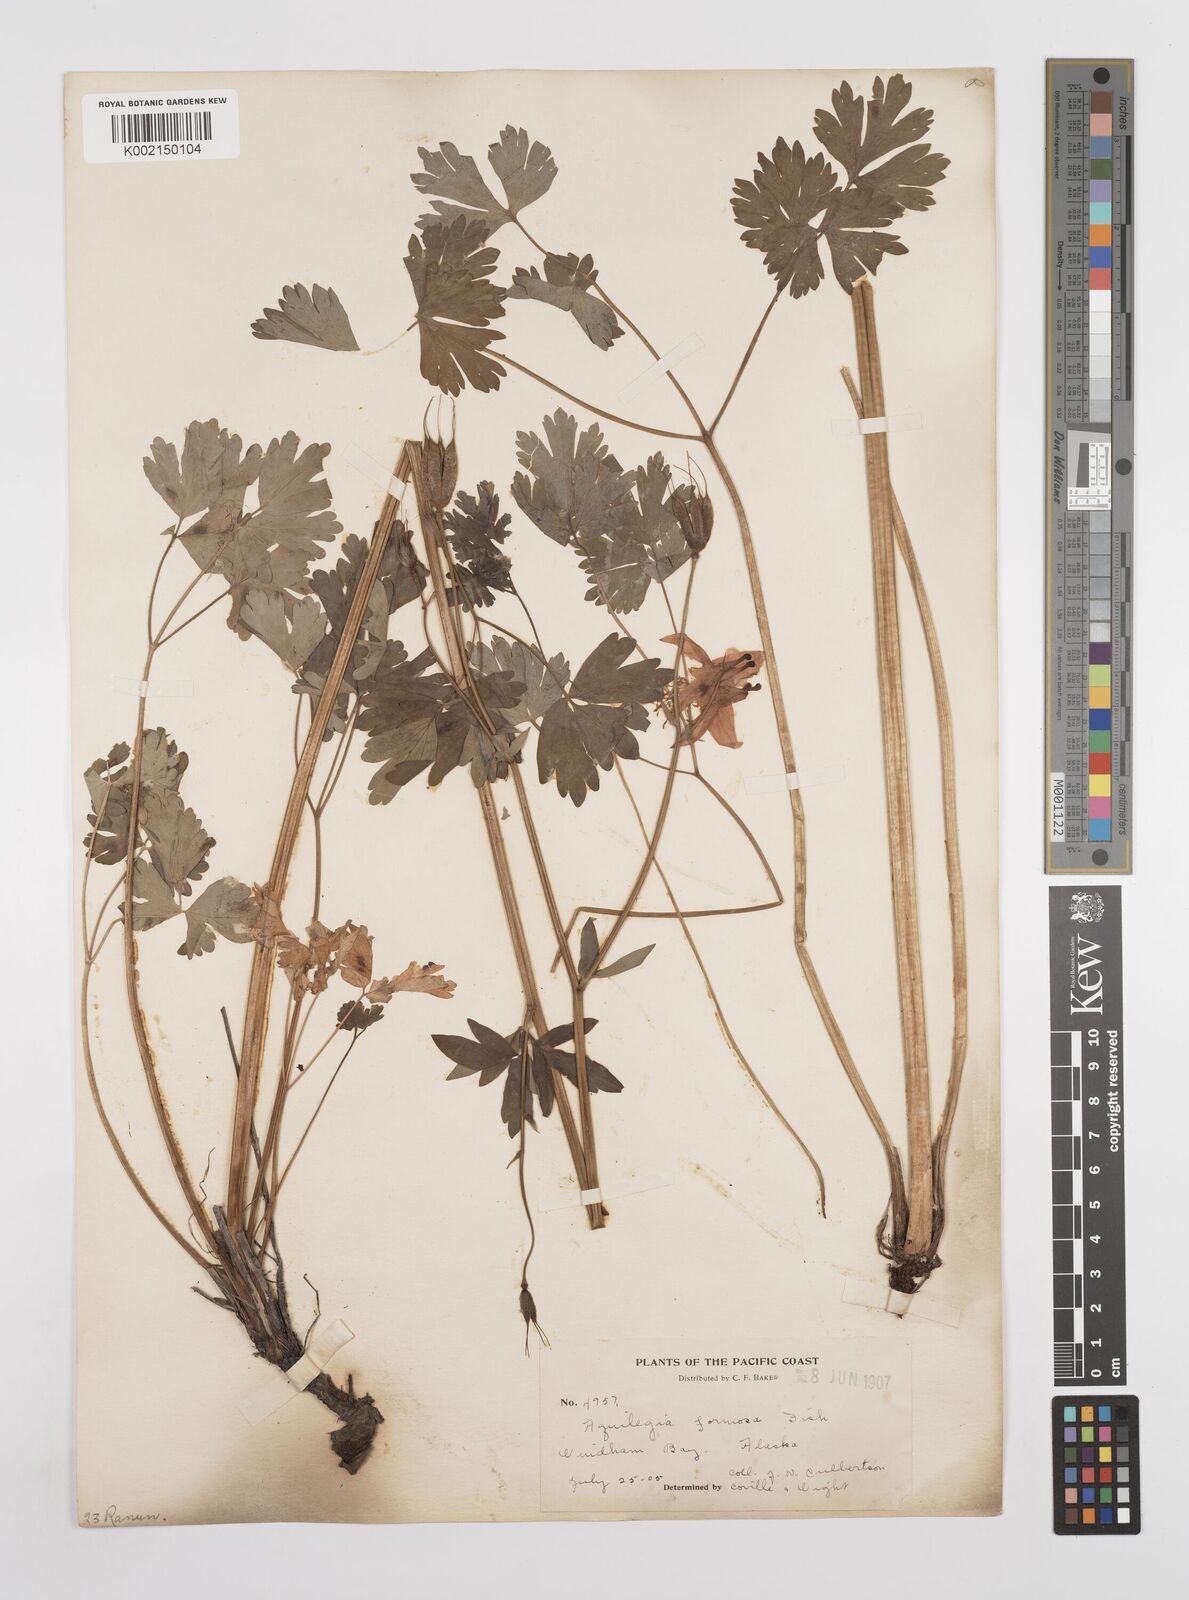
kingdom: Plantae
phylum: Tracheophyta
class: Magnoliopsida
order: Ranunculales
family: Ranunculaceae
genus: Aquilegia
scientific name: Aquilegia
